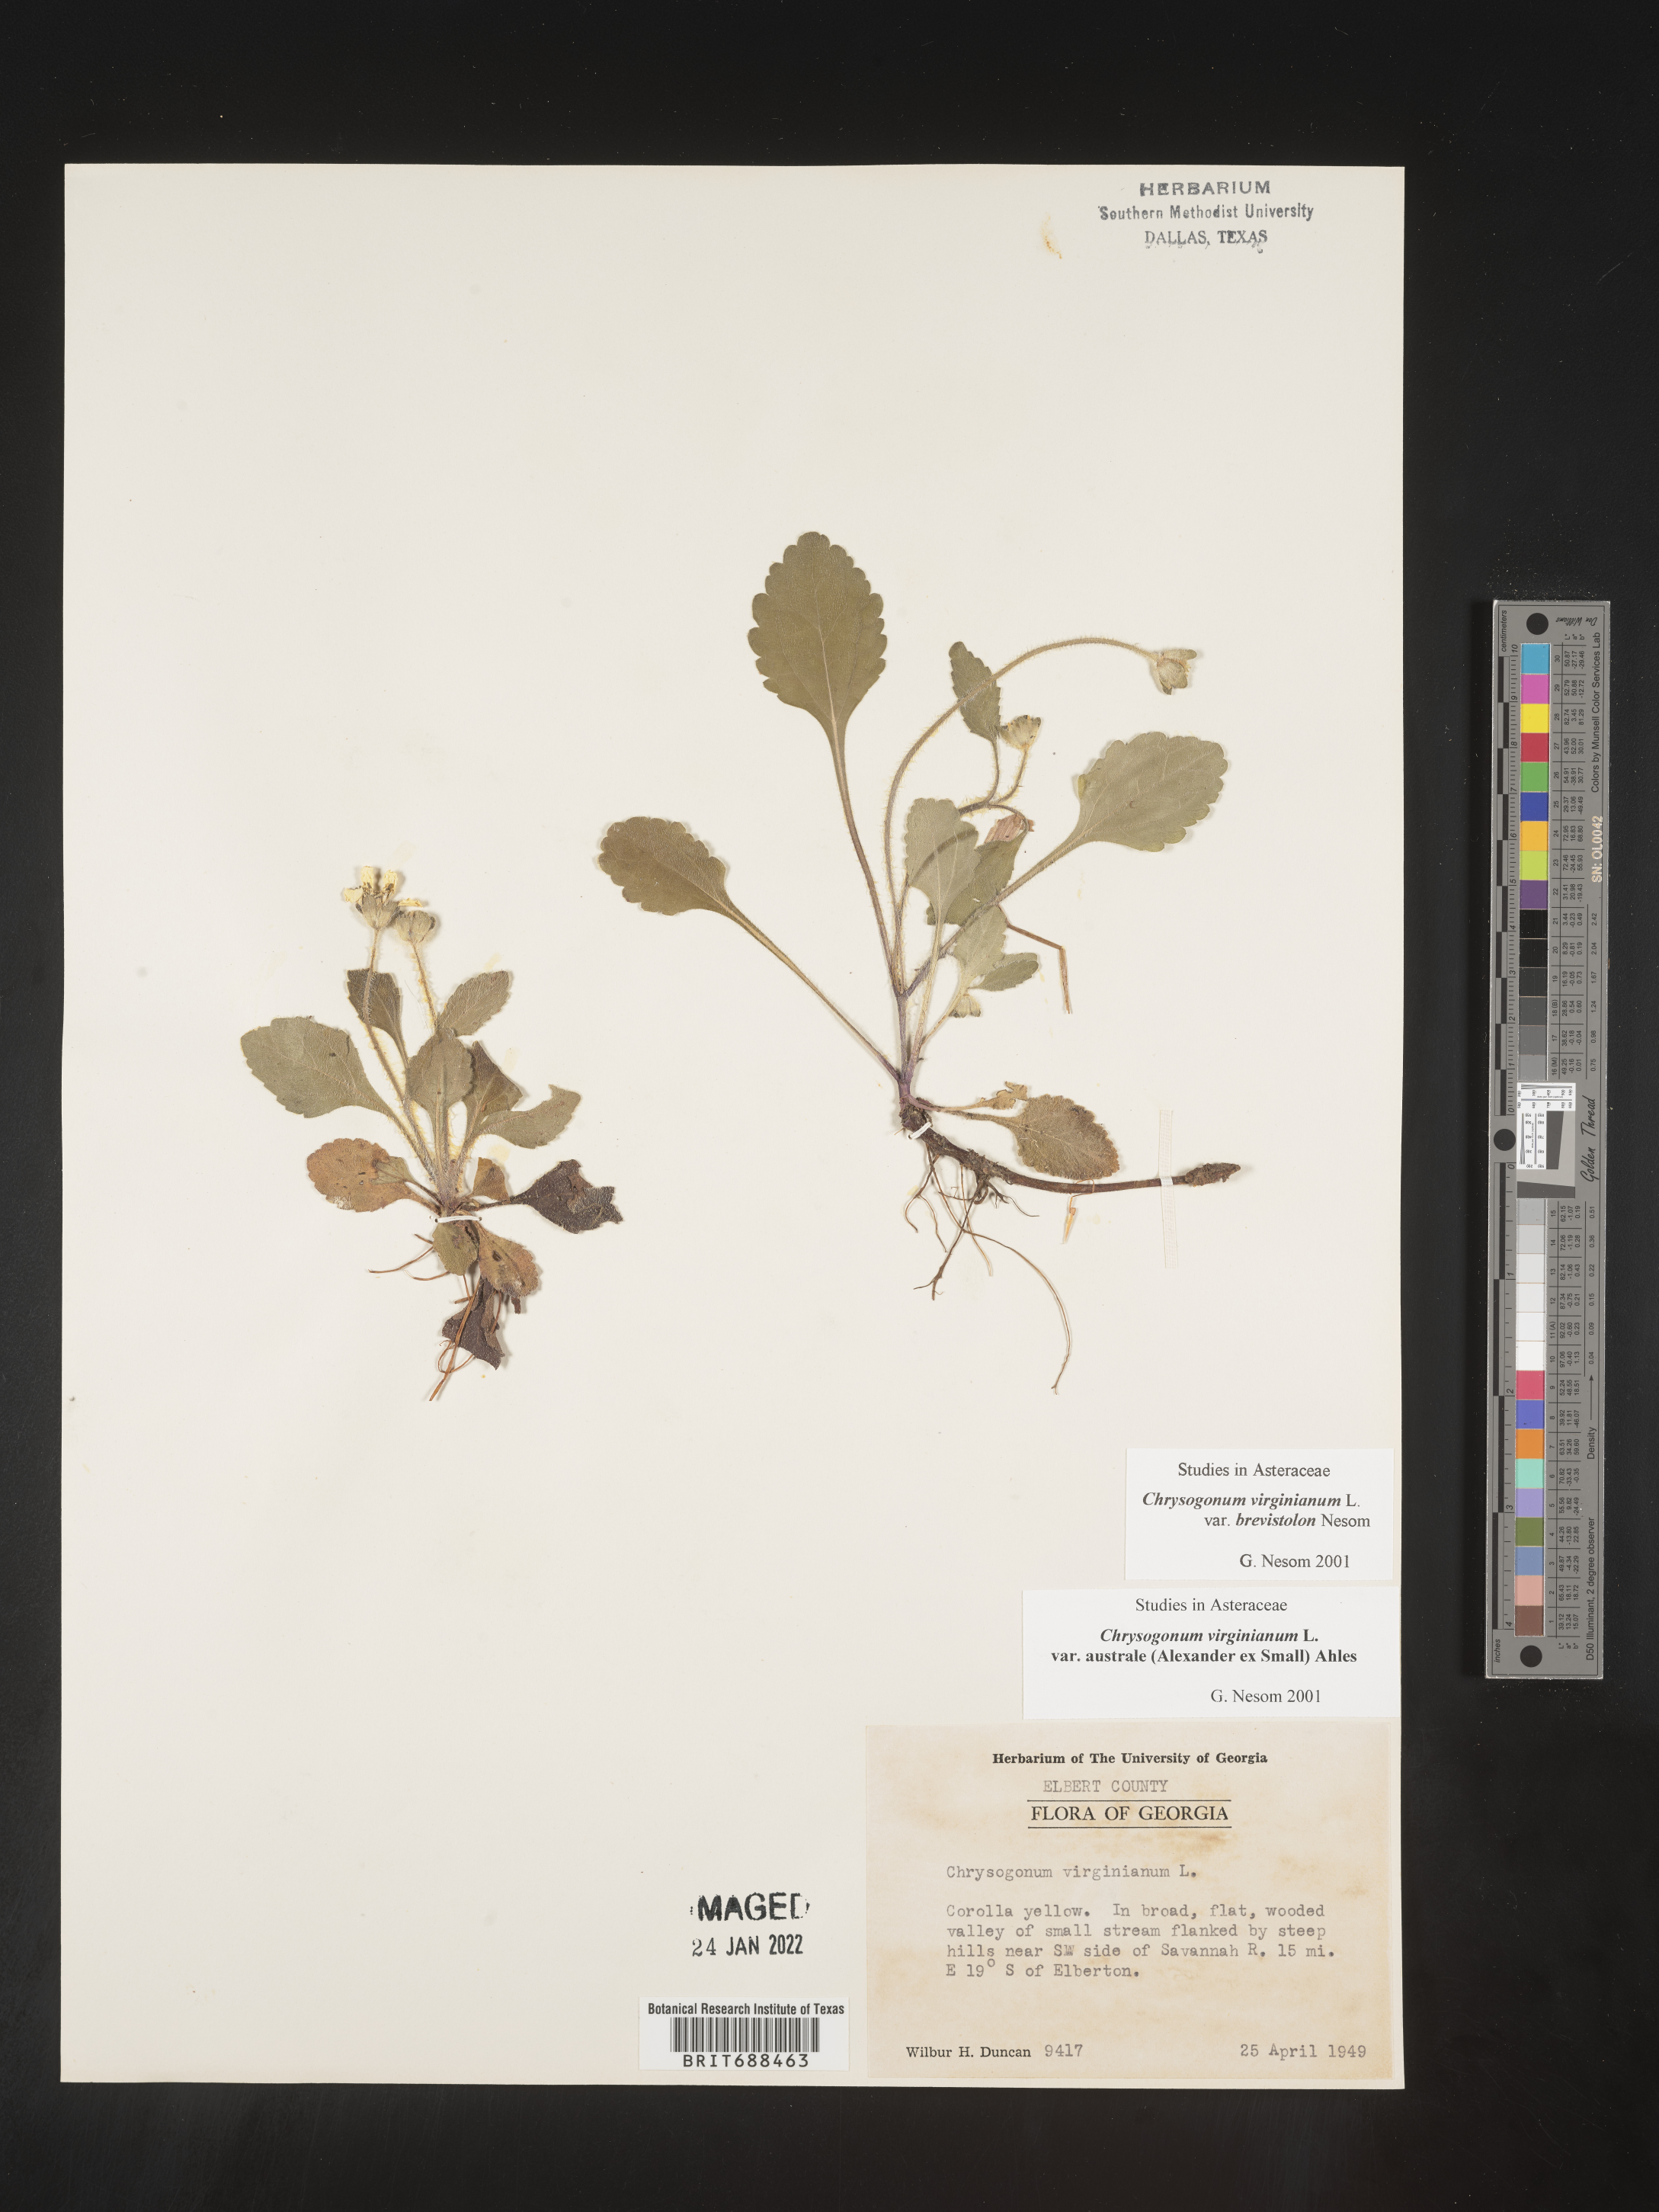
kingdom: Plantae
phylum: Tracheophyta
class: Magnoliopsida
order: Asterales
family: Asteraceae
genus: Chrysogonum
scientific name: Chrysogonum virginianum
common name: Golden-knee
